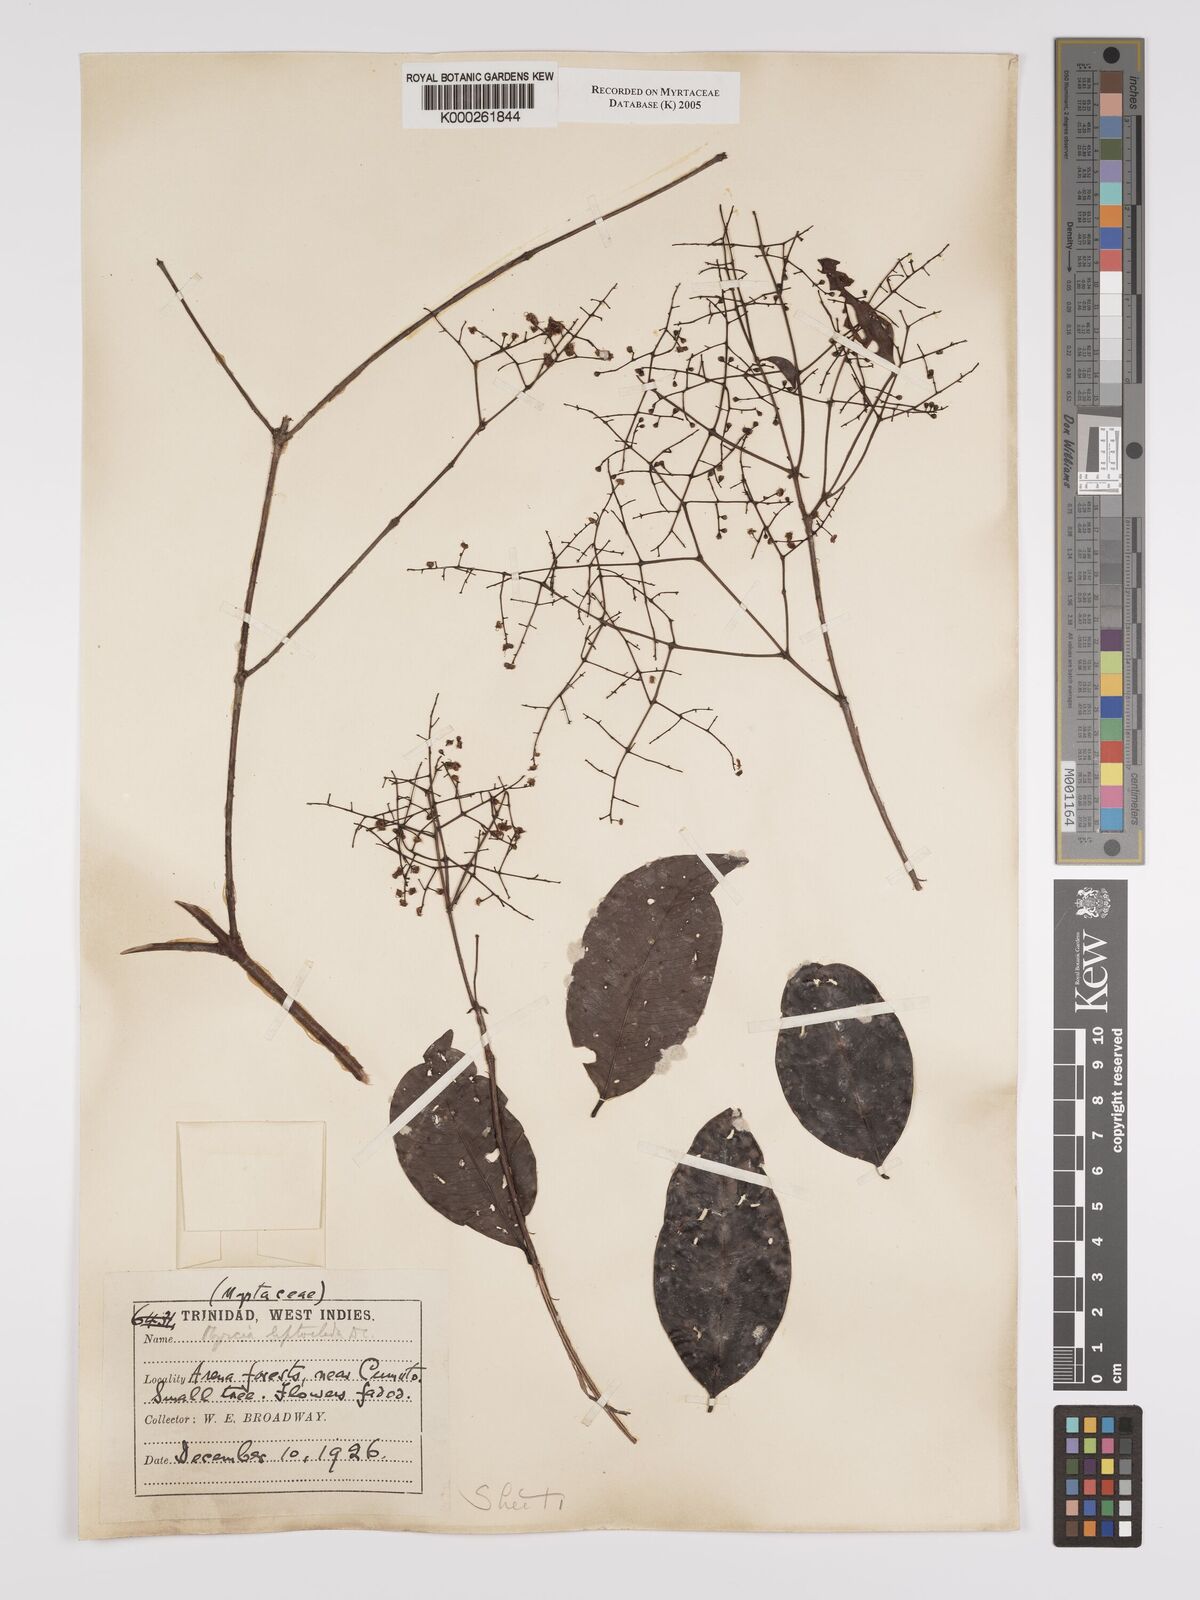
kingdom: Plantae
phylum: Tracheophyta
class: Magnoliopsida
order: Myrtales
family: Myrtaceae
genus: Myrcia
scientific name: Myrcia amazonica
